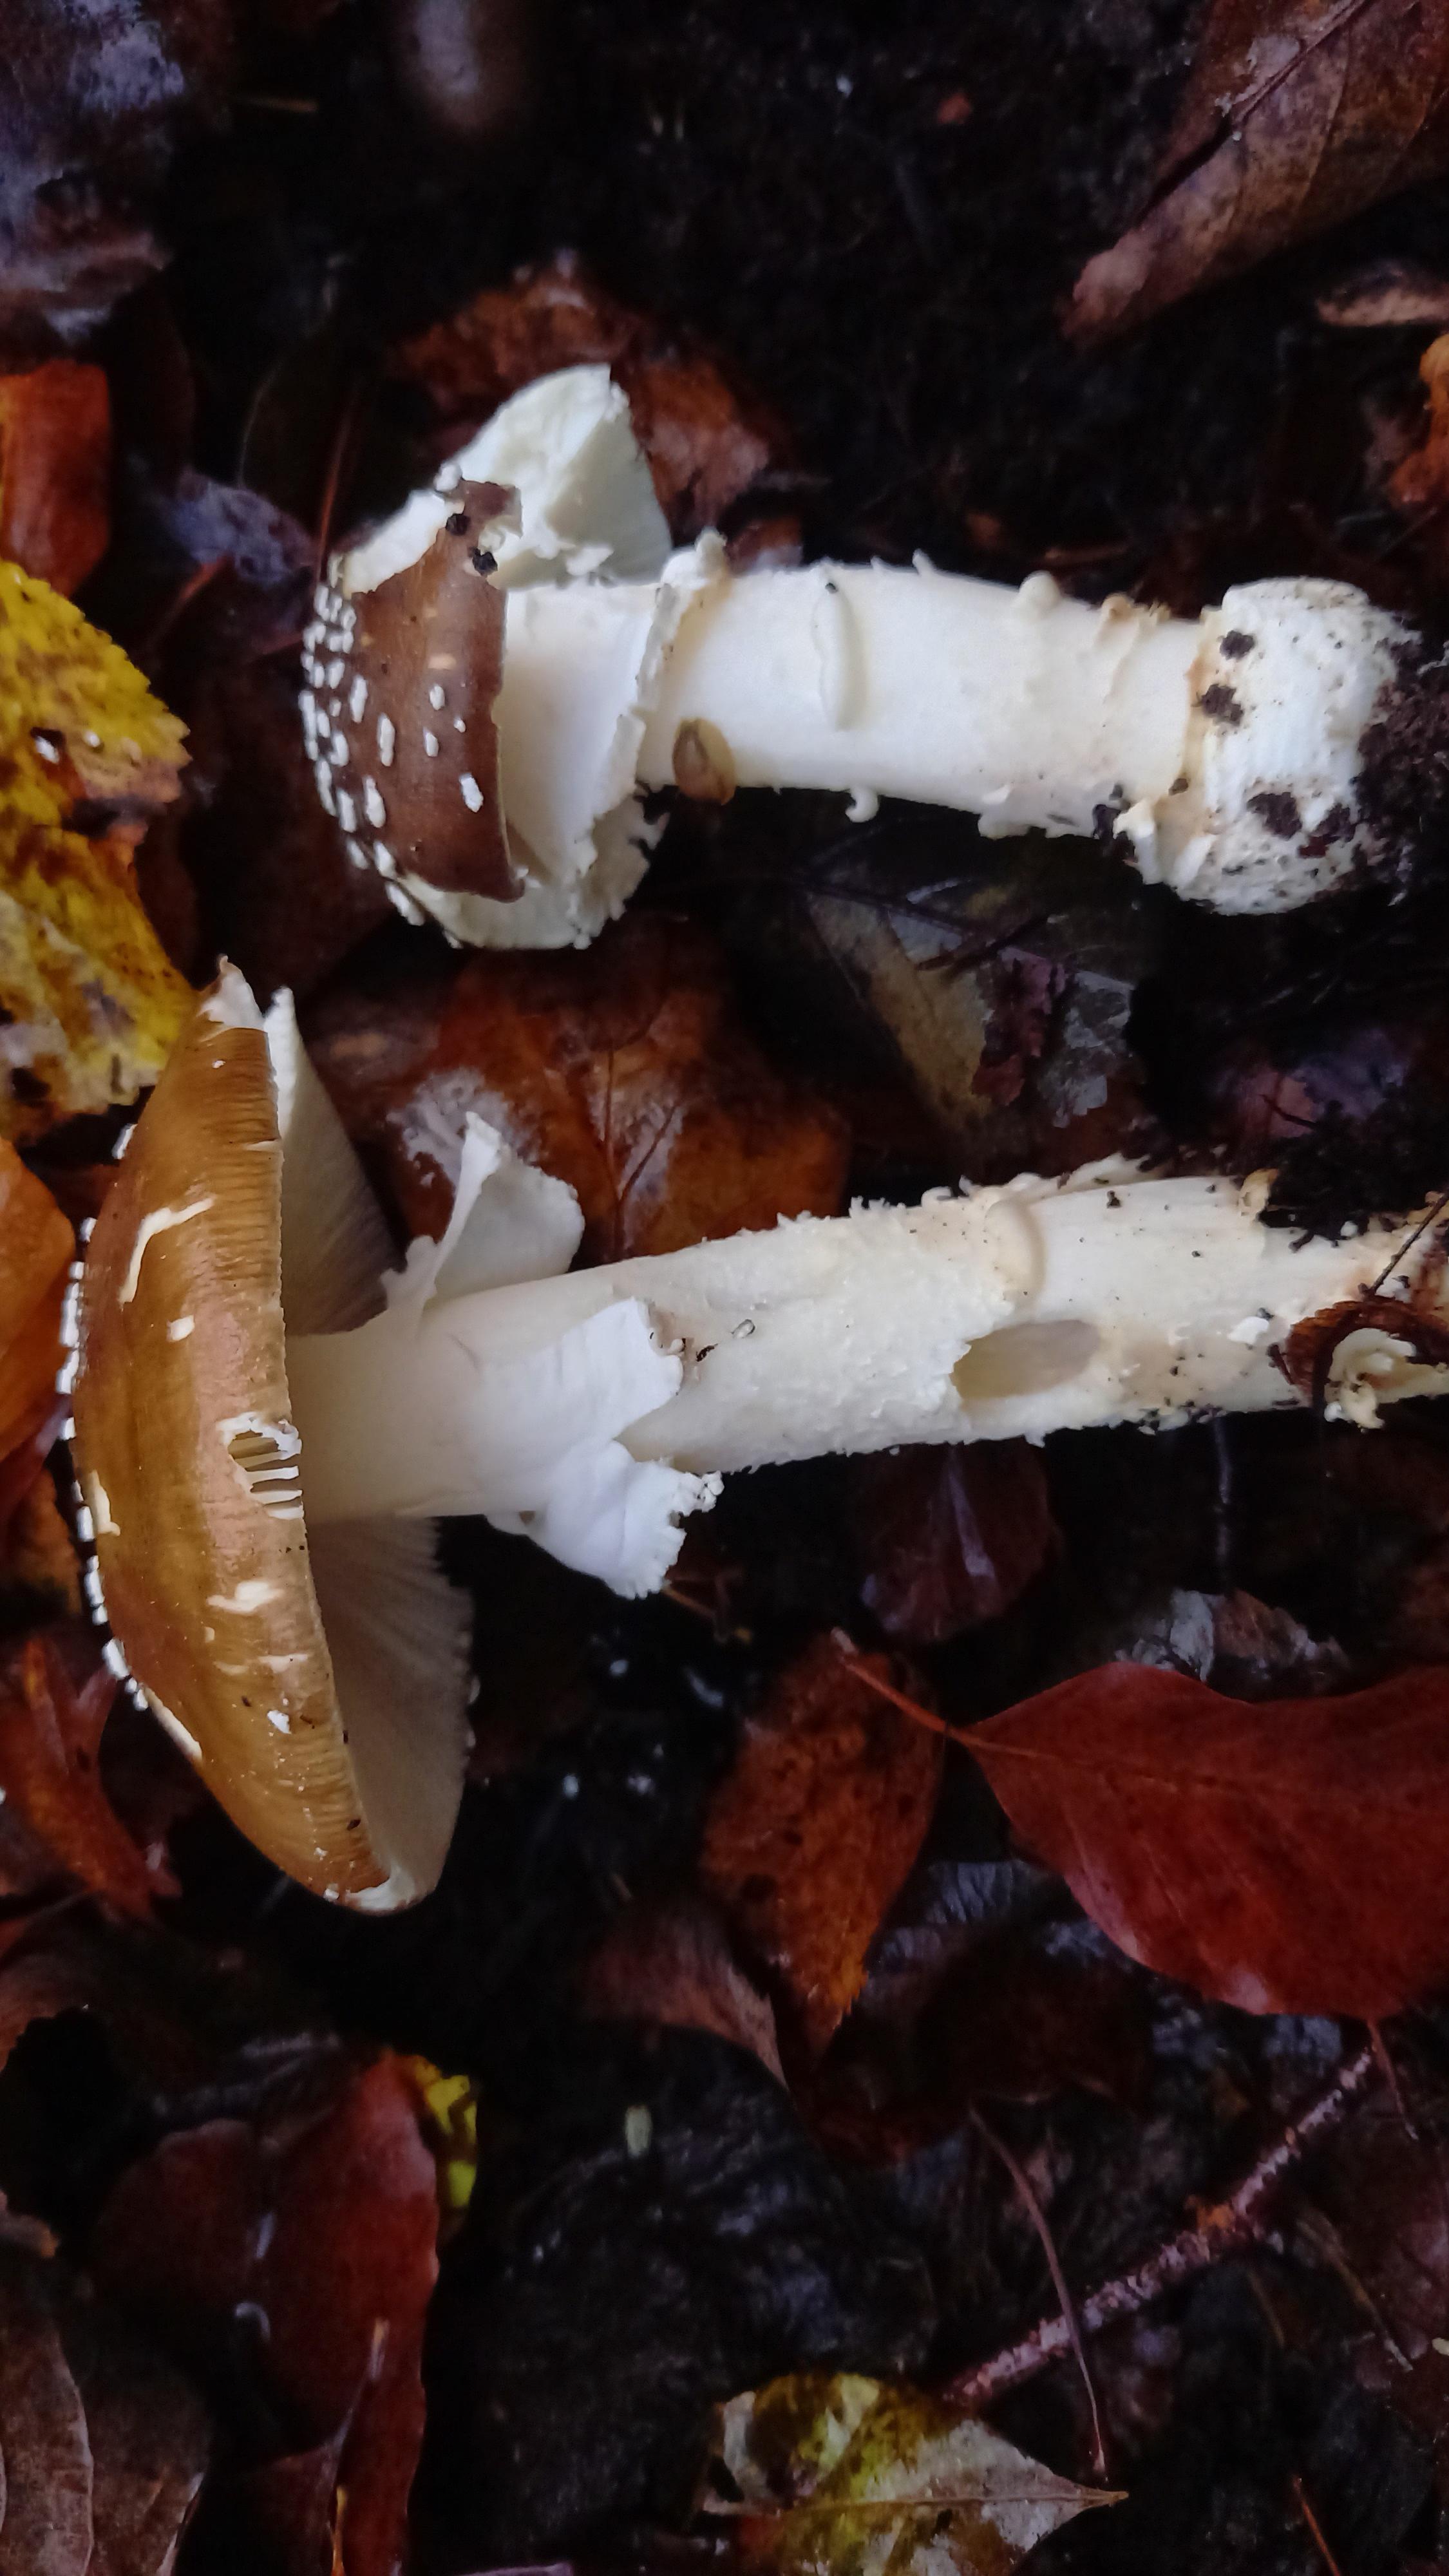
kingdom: Fungi
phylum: Basidiomycota
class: Agaricomycetes
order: Agaricales
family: Amanitaceae
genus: Amanita
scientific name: Amanita pantherina
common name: panter-fluesvamp
